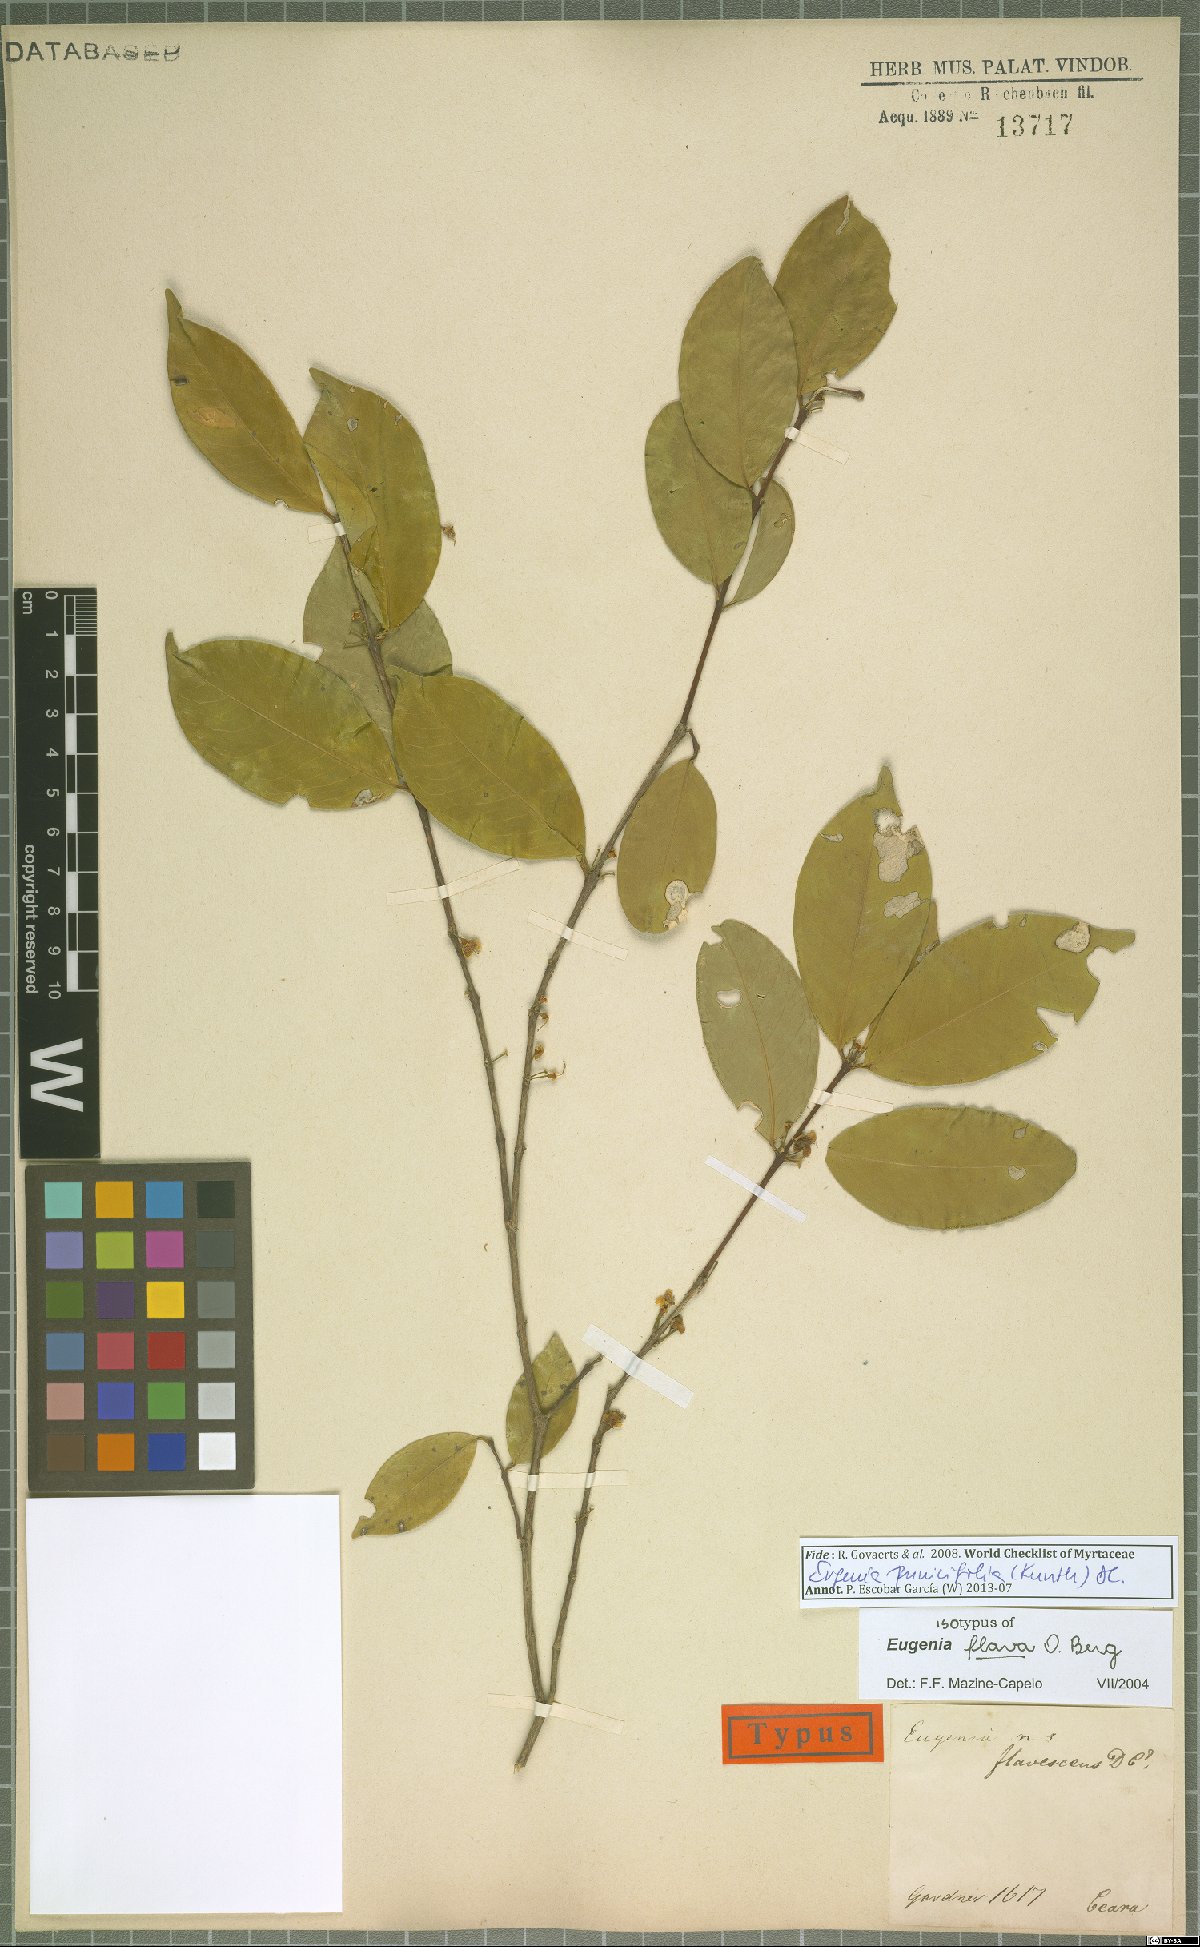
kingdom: Plantae
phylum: Tracheophyta
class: Magnoliopsida
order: Myrtales
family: Myrtaceae
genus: Eugenia
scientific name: Eugenia punicifolia
